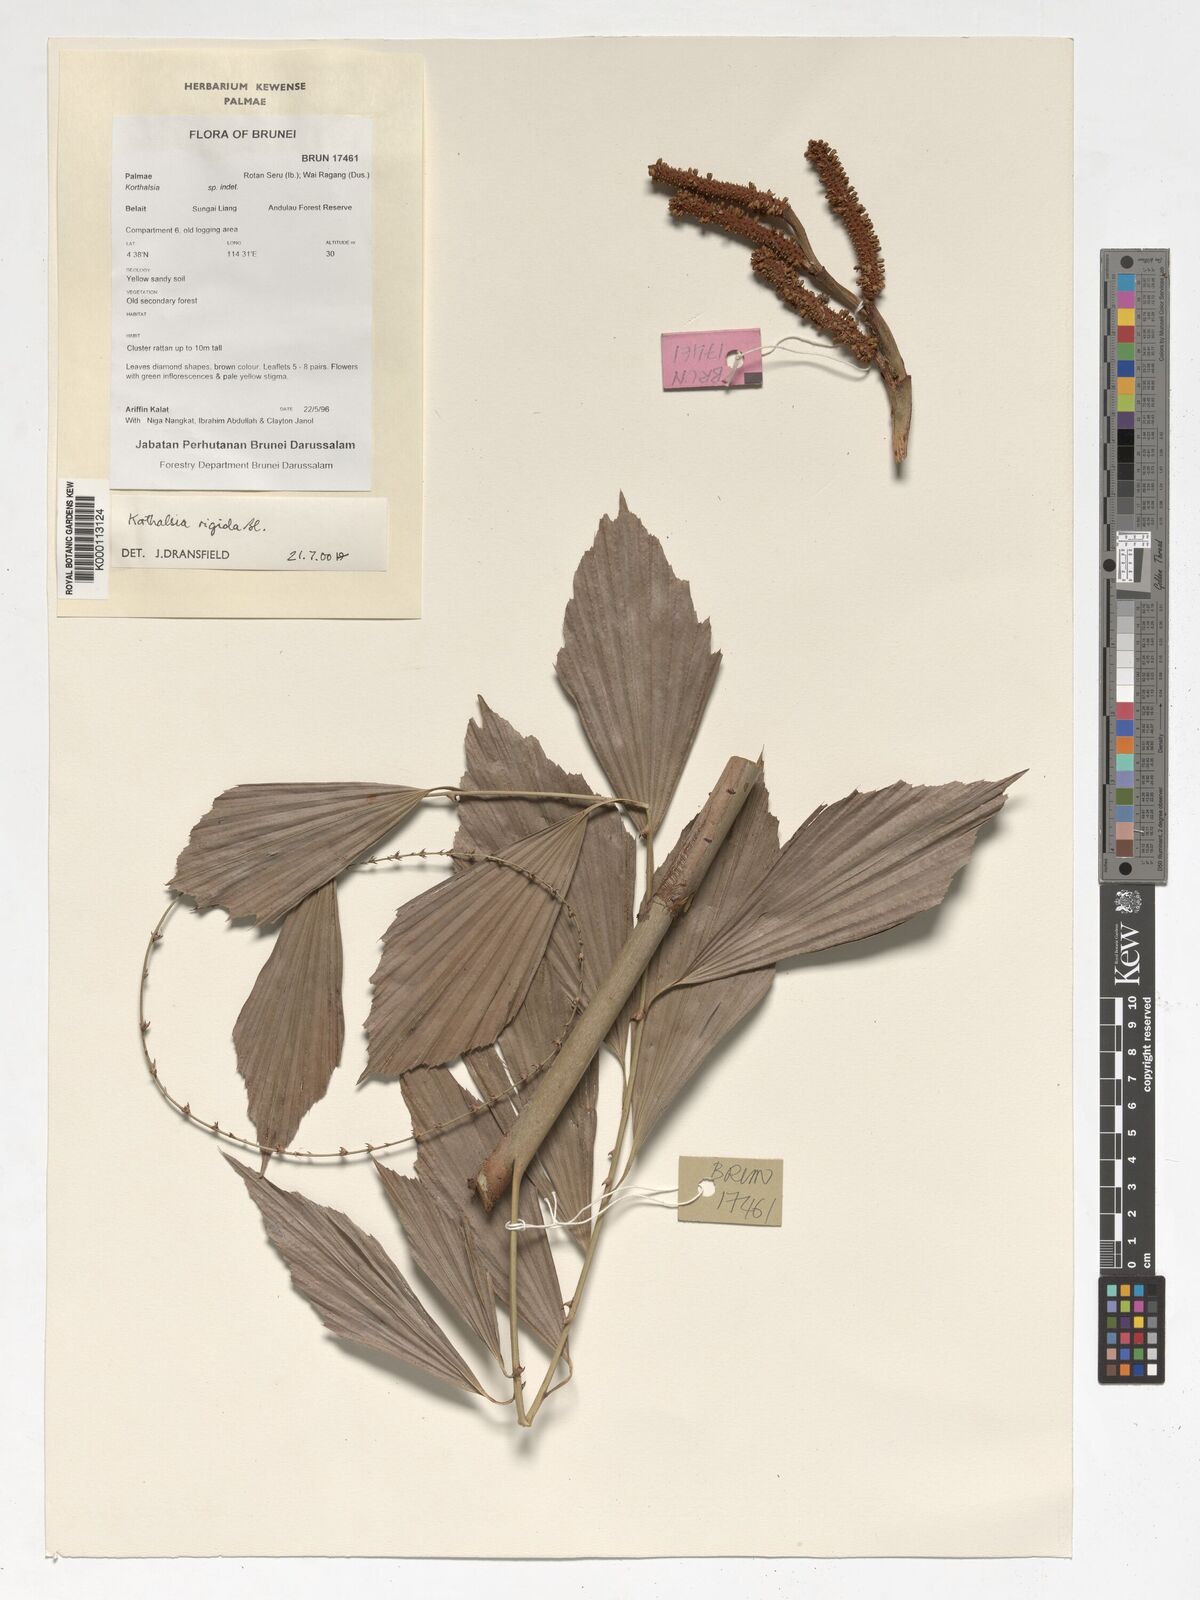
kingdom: Plantae
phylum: Tracheophyta
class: Liliopsida
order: Arecales
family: Arecaceae
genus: Korthalsia
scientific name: Korthalsia rigida
